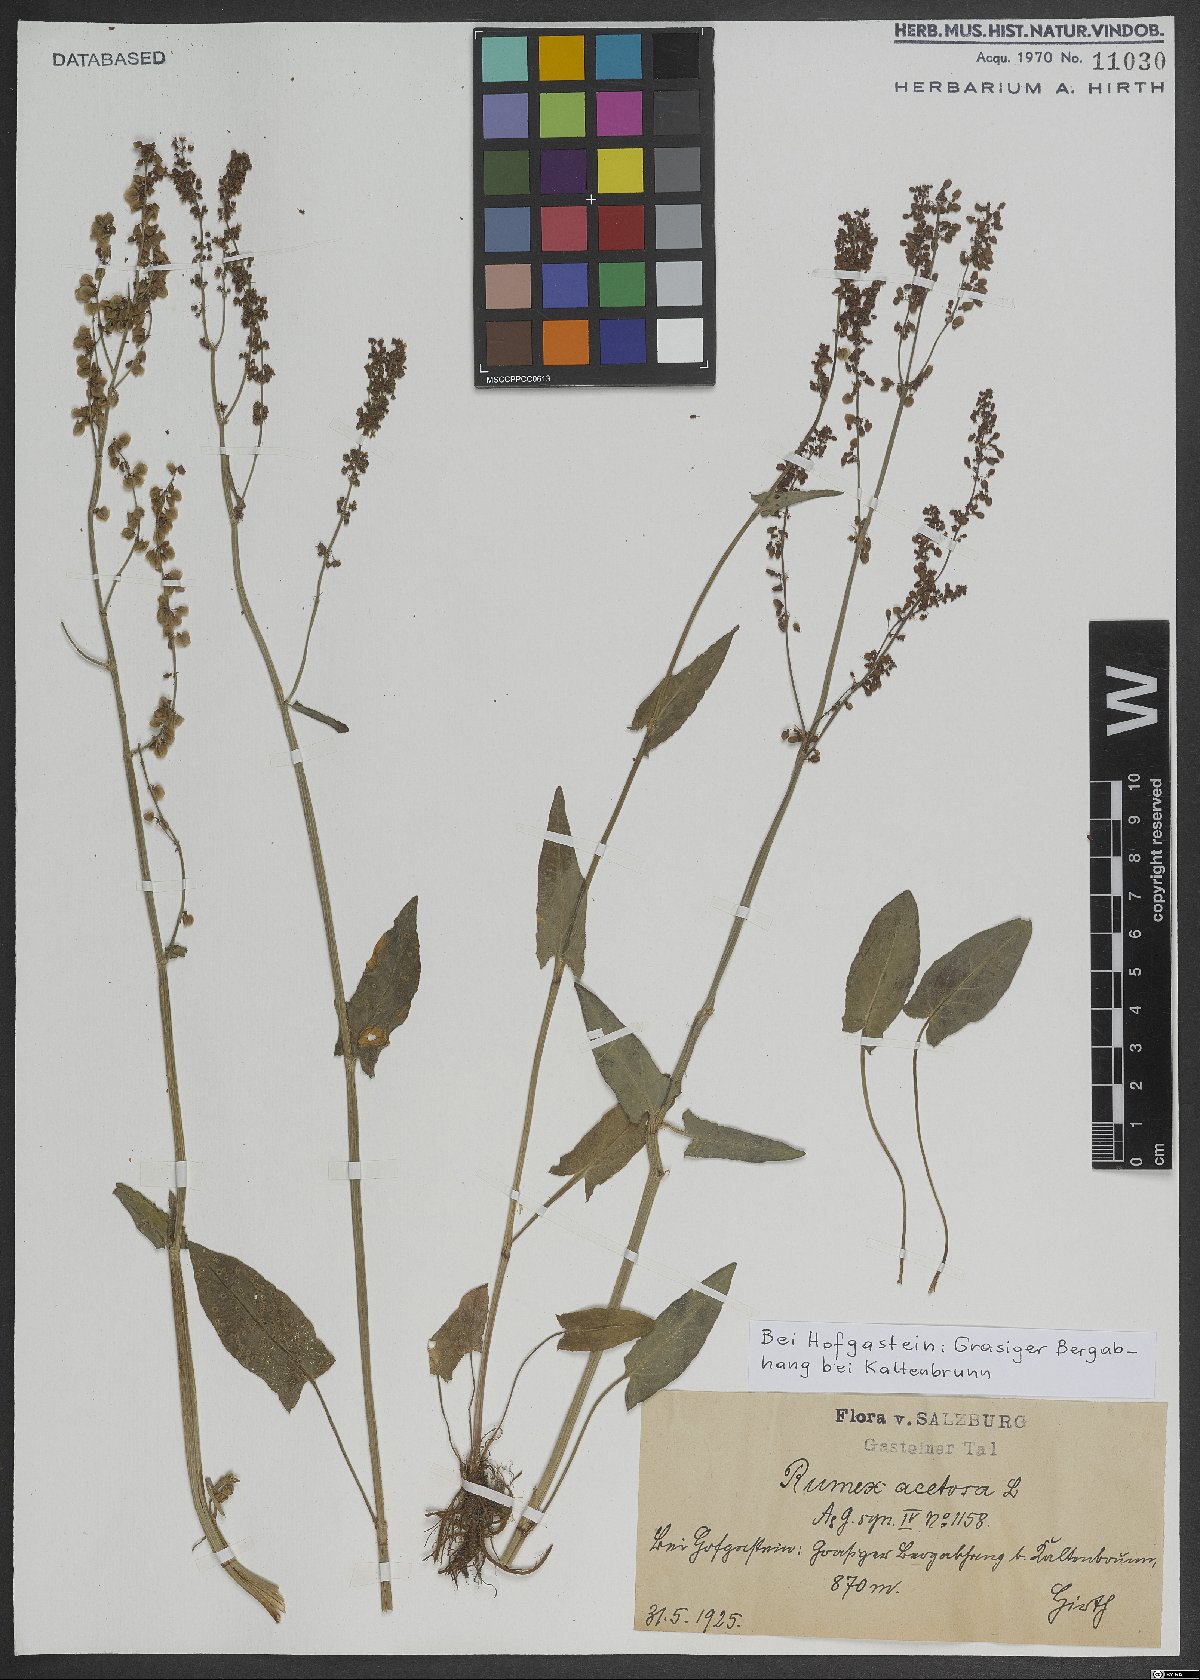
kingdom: Plantae
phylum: Tracheophyta
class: Magnoliopsida
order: Caryophyllales
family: Polygonaceae
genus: Rumex
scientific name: Rumex acetosa
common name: Garden sorrel
